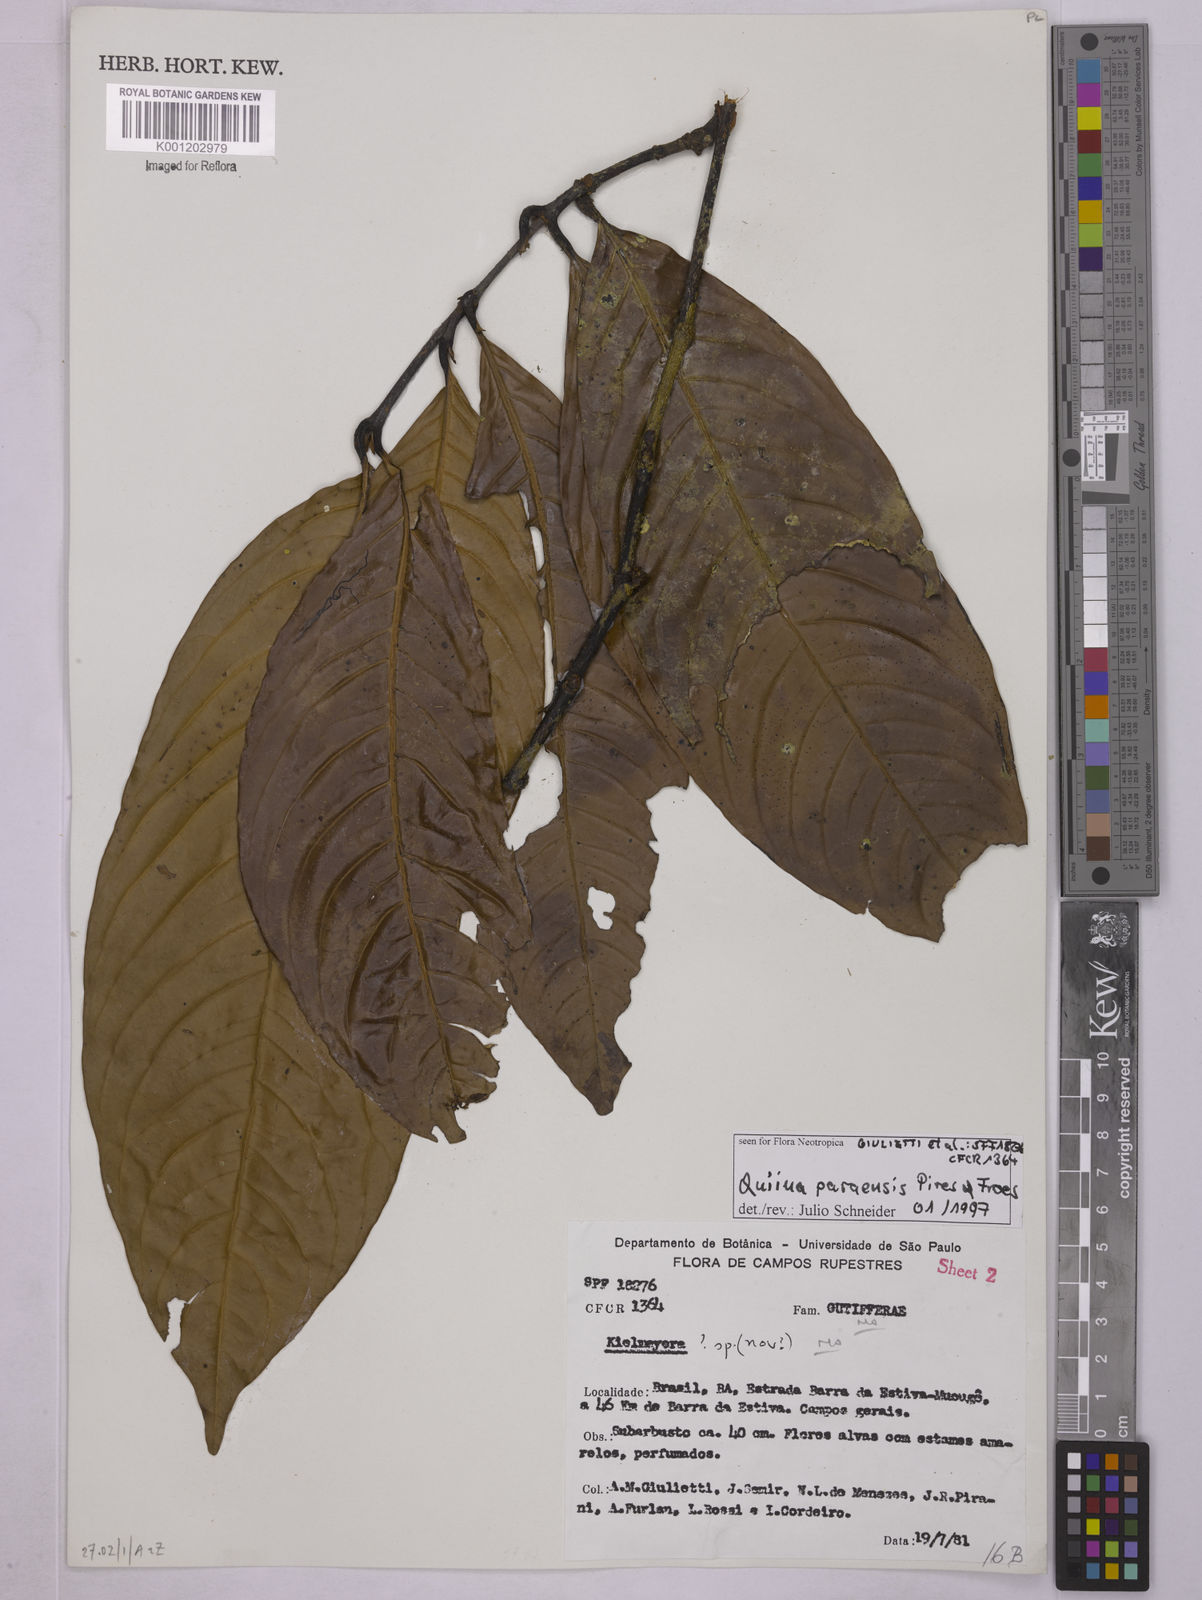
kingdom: Plantae
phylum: Tracheophyta
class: Magnoliopsida
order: Malpighiales
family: Quiinaceae
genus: Quiina
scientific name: Quiina paraensis
